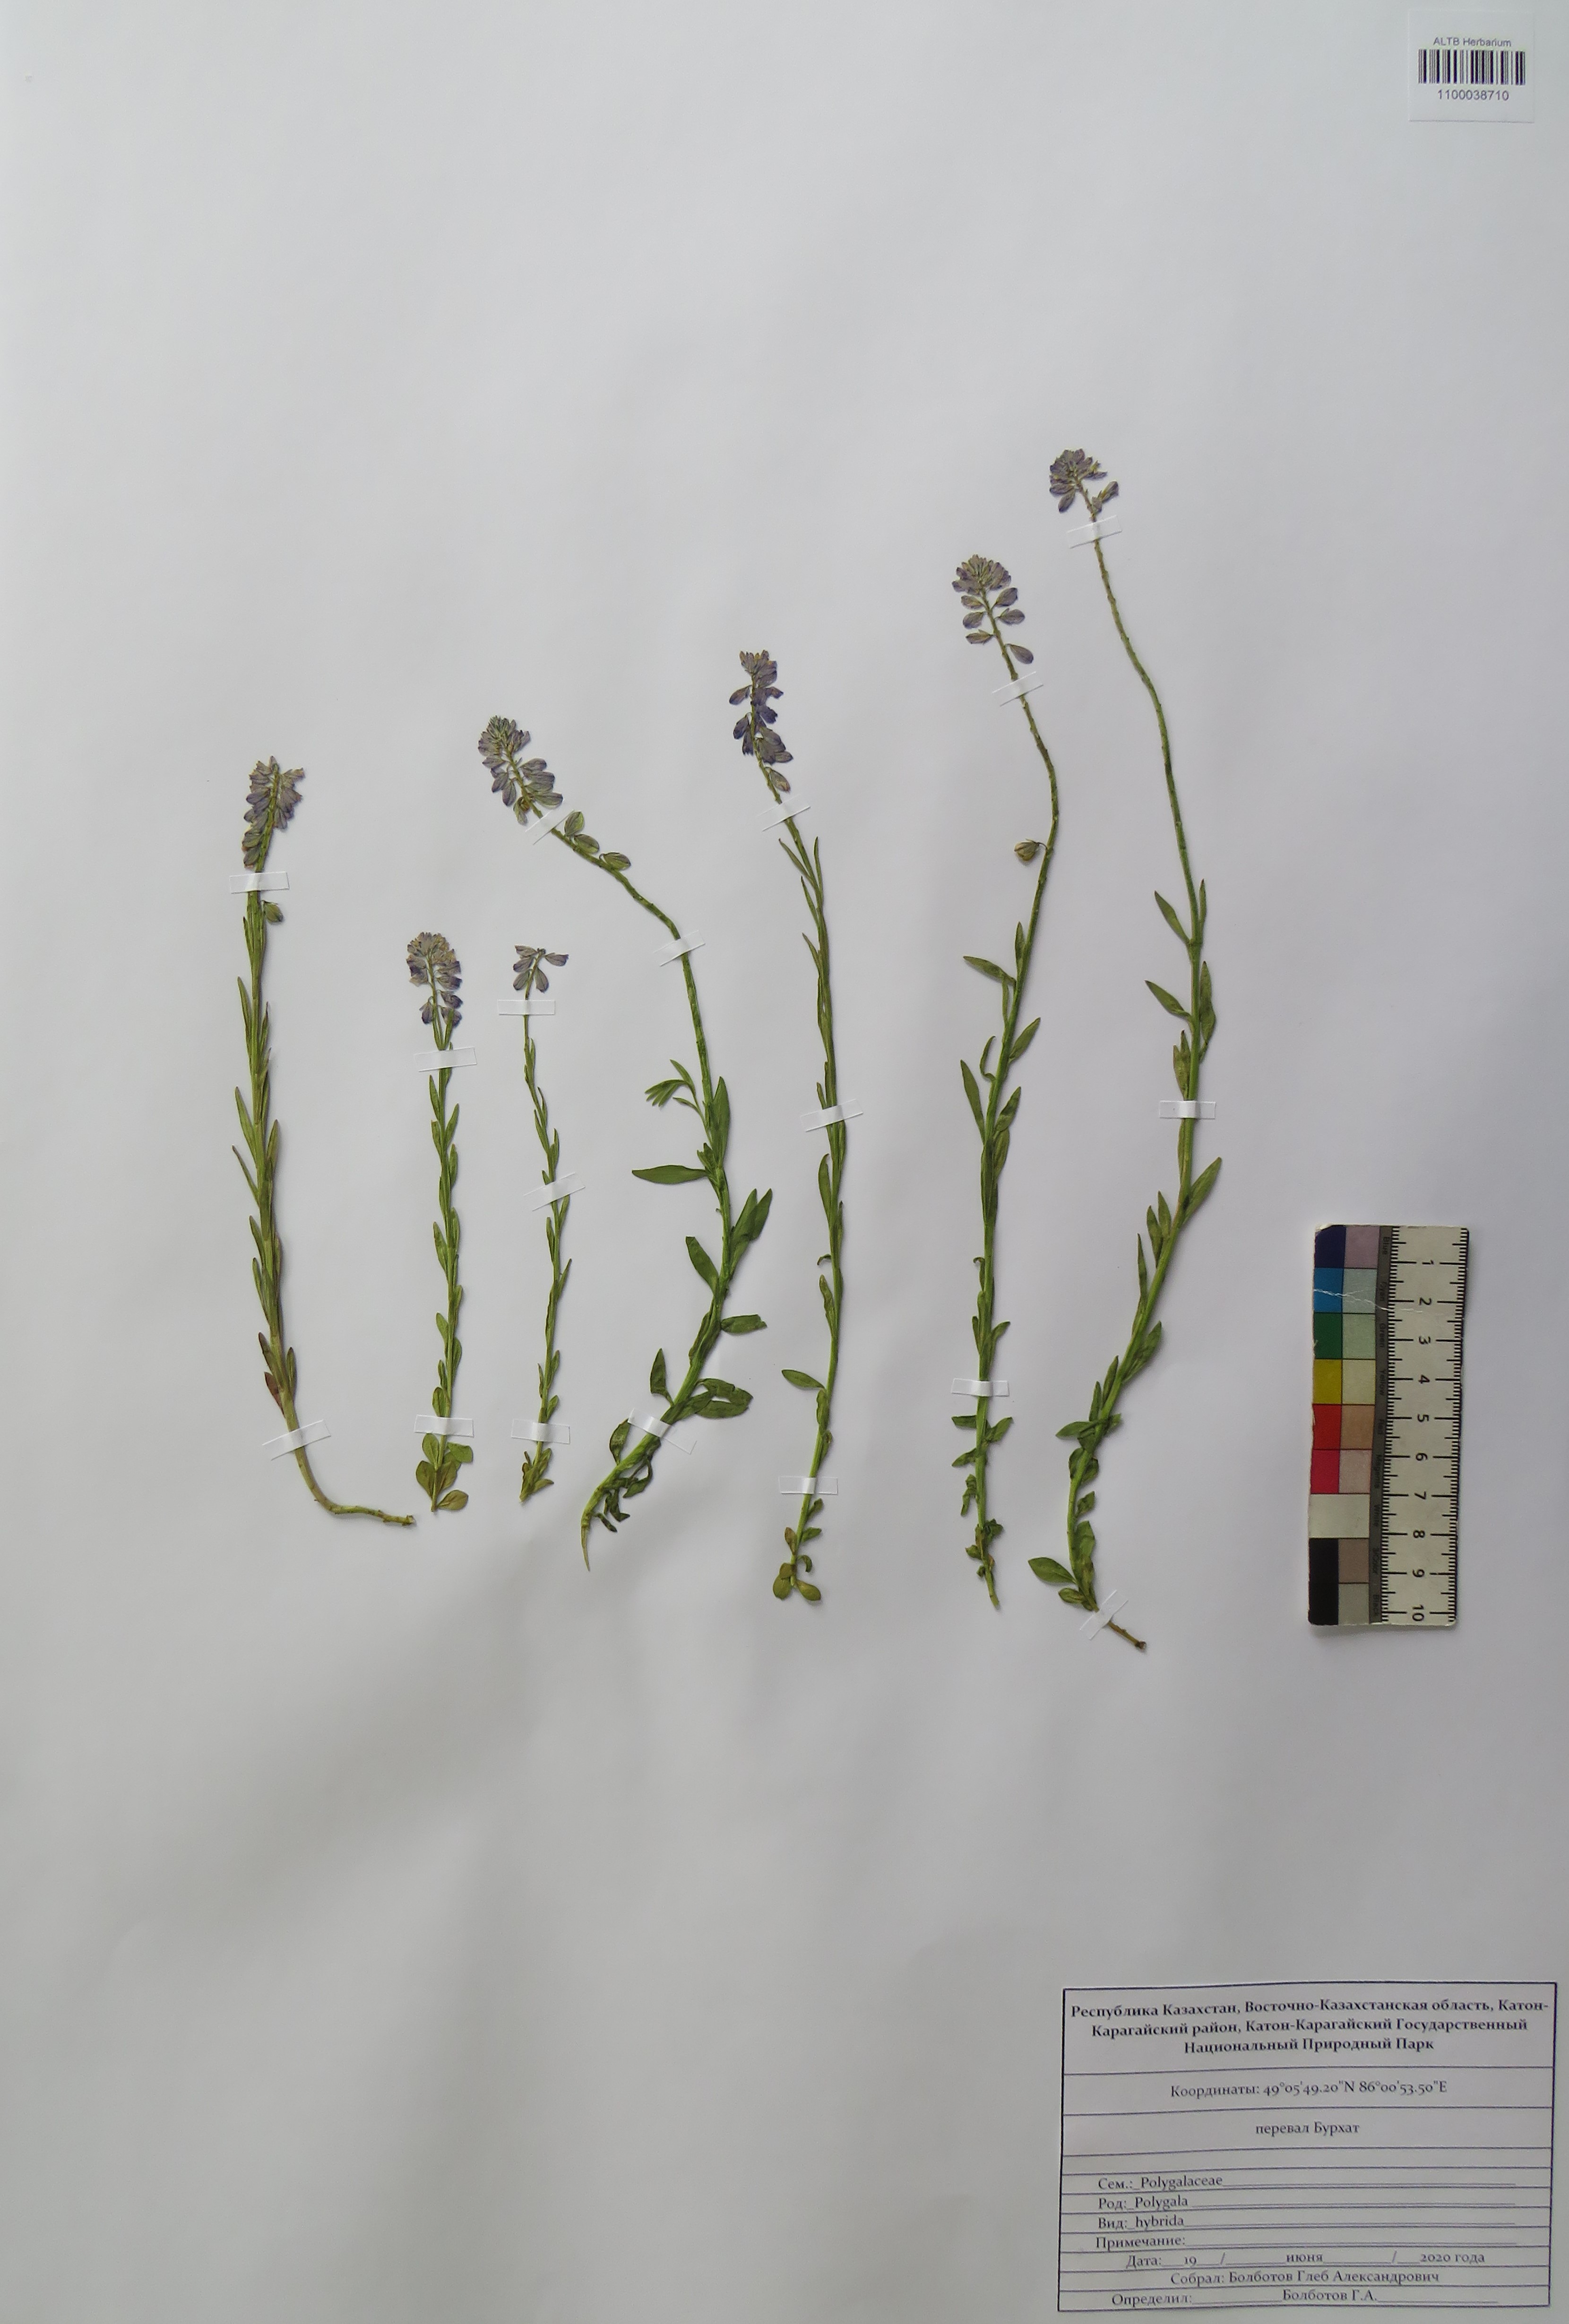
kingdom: Plantae
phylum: Tracheophyta
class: Magnoliopsida
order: Fabales
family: Polygalaceae
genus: Polygala
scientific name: Polygala comosa
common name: Tufted milkwort
